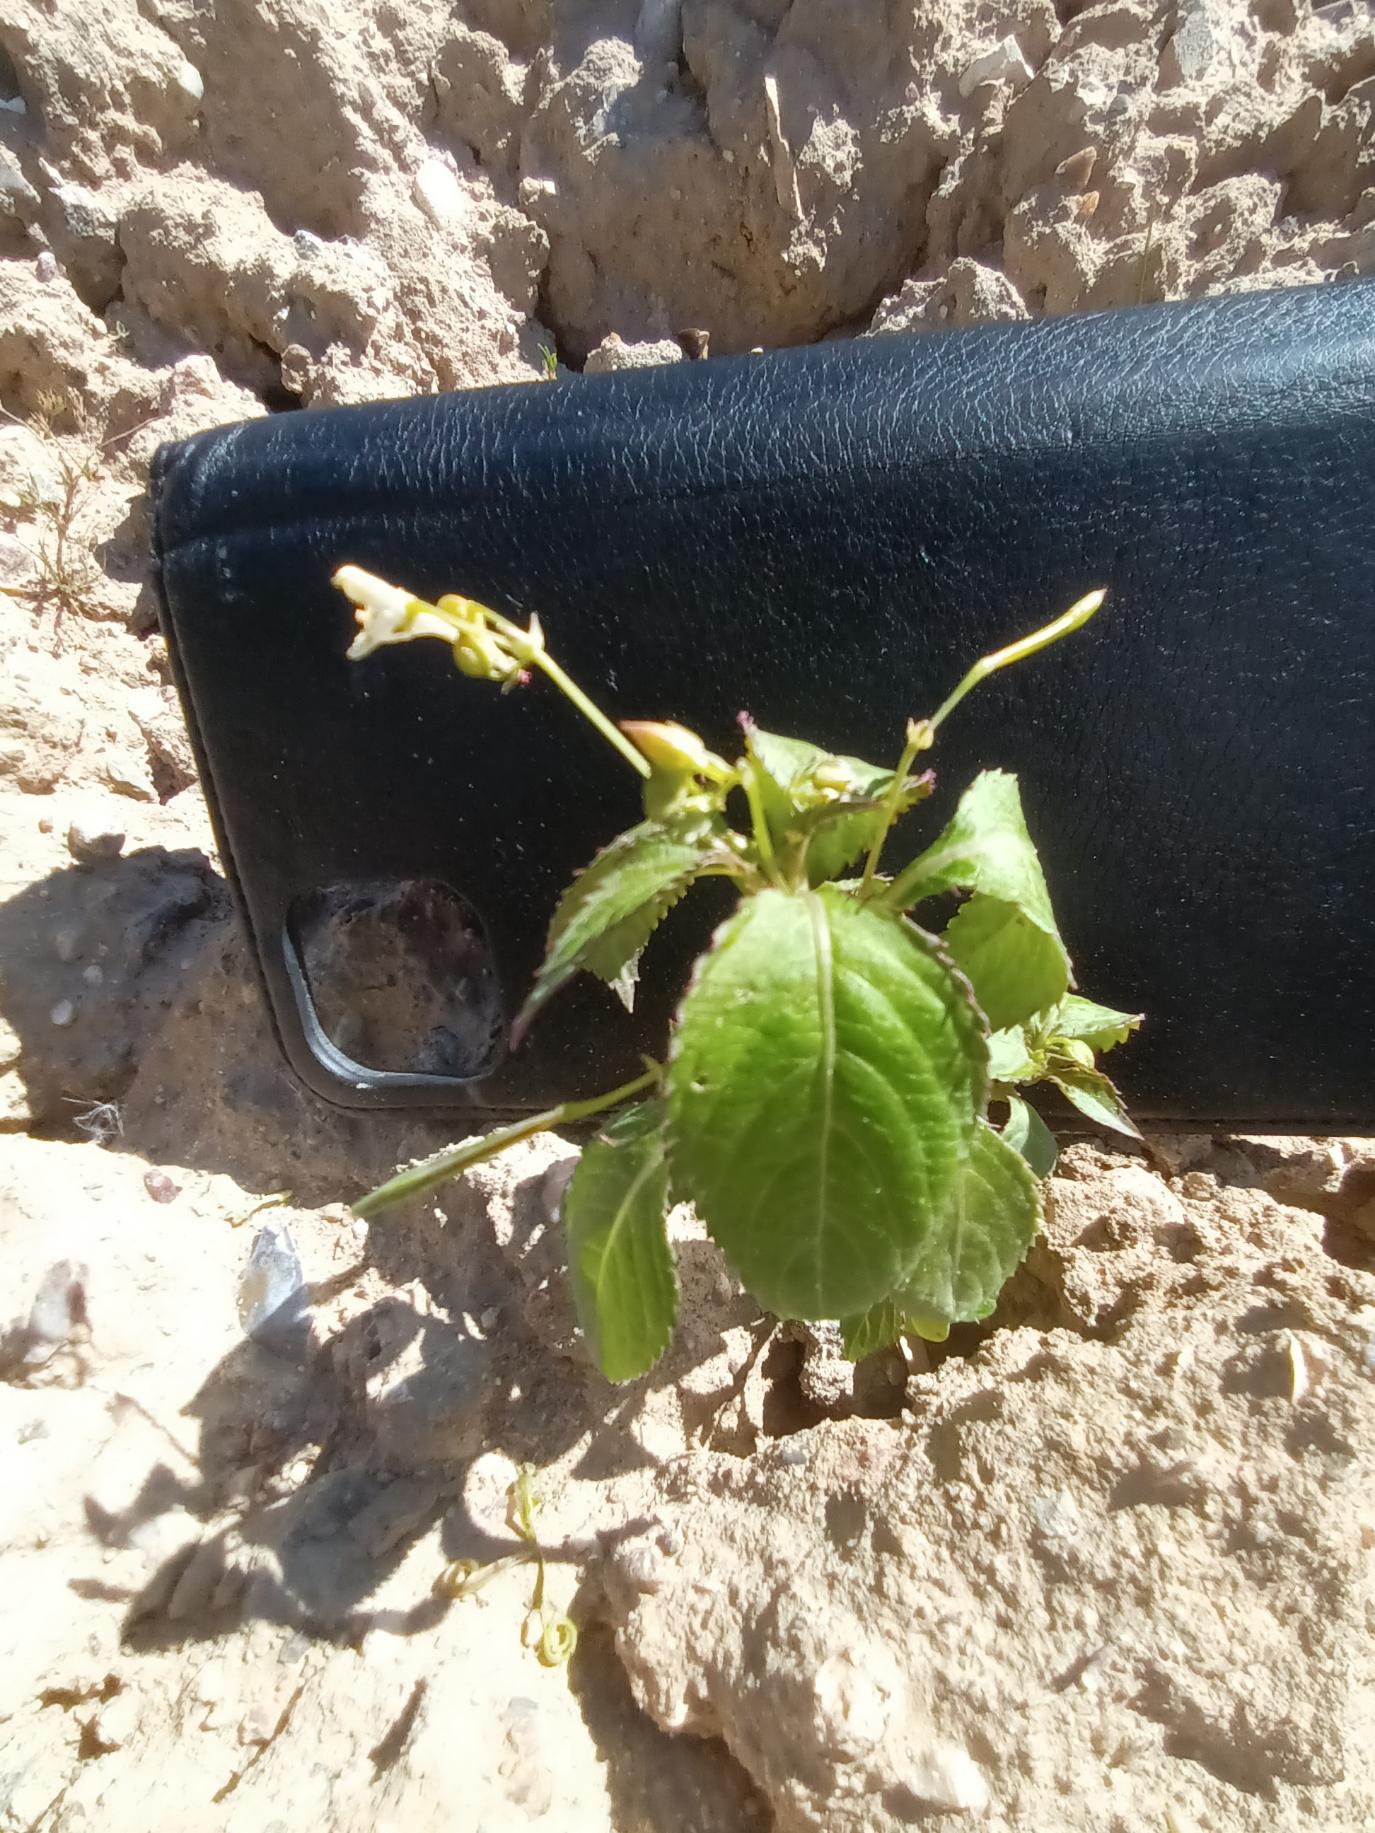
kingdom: Plantae
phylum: Tracheophyta
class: Magnoliopsida
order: Ericales
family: Balsaminaceae
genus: Impatiens
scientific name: Impatiens parviflora
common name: Småblomstret balsamin
